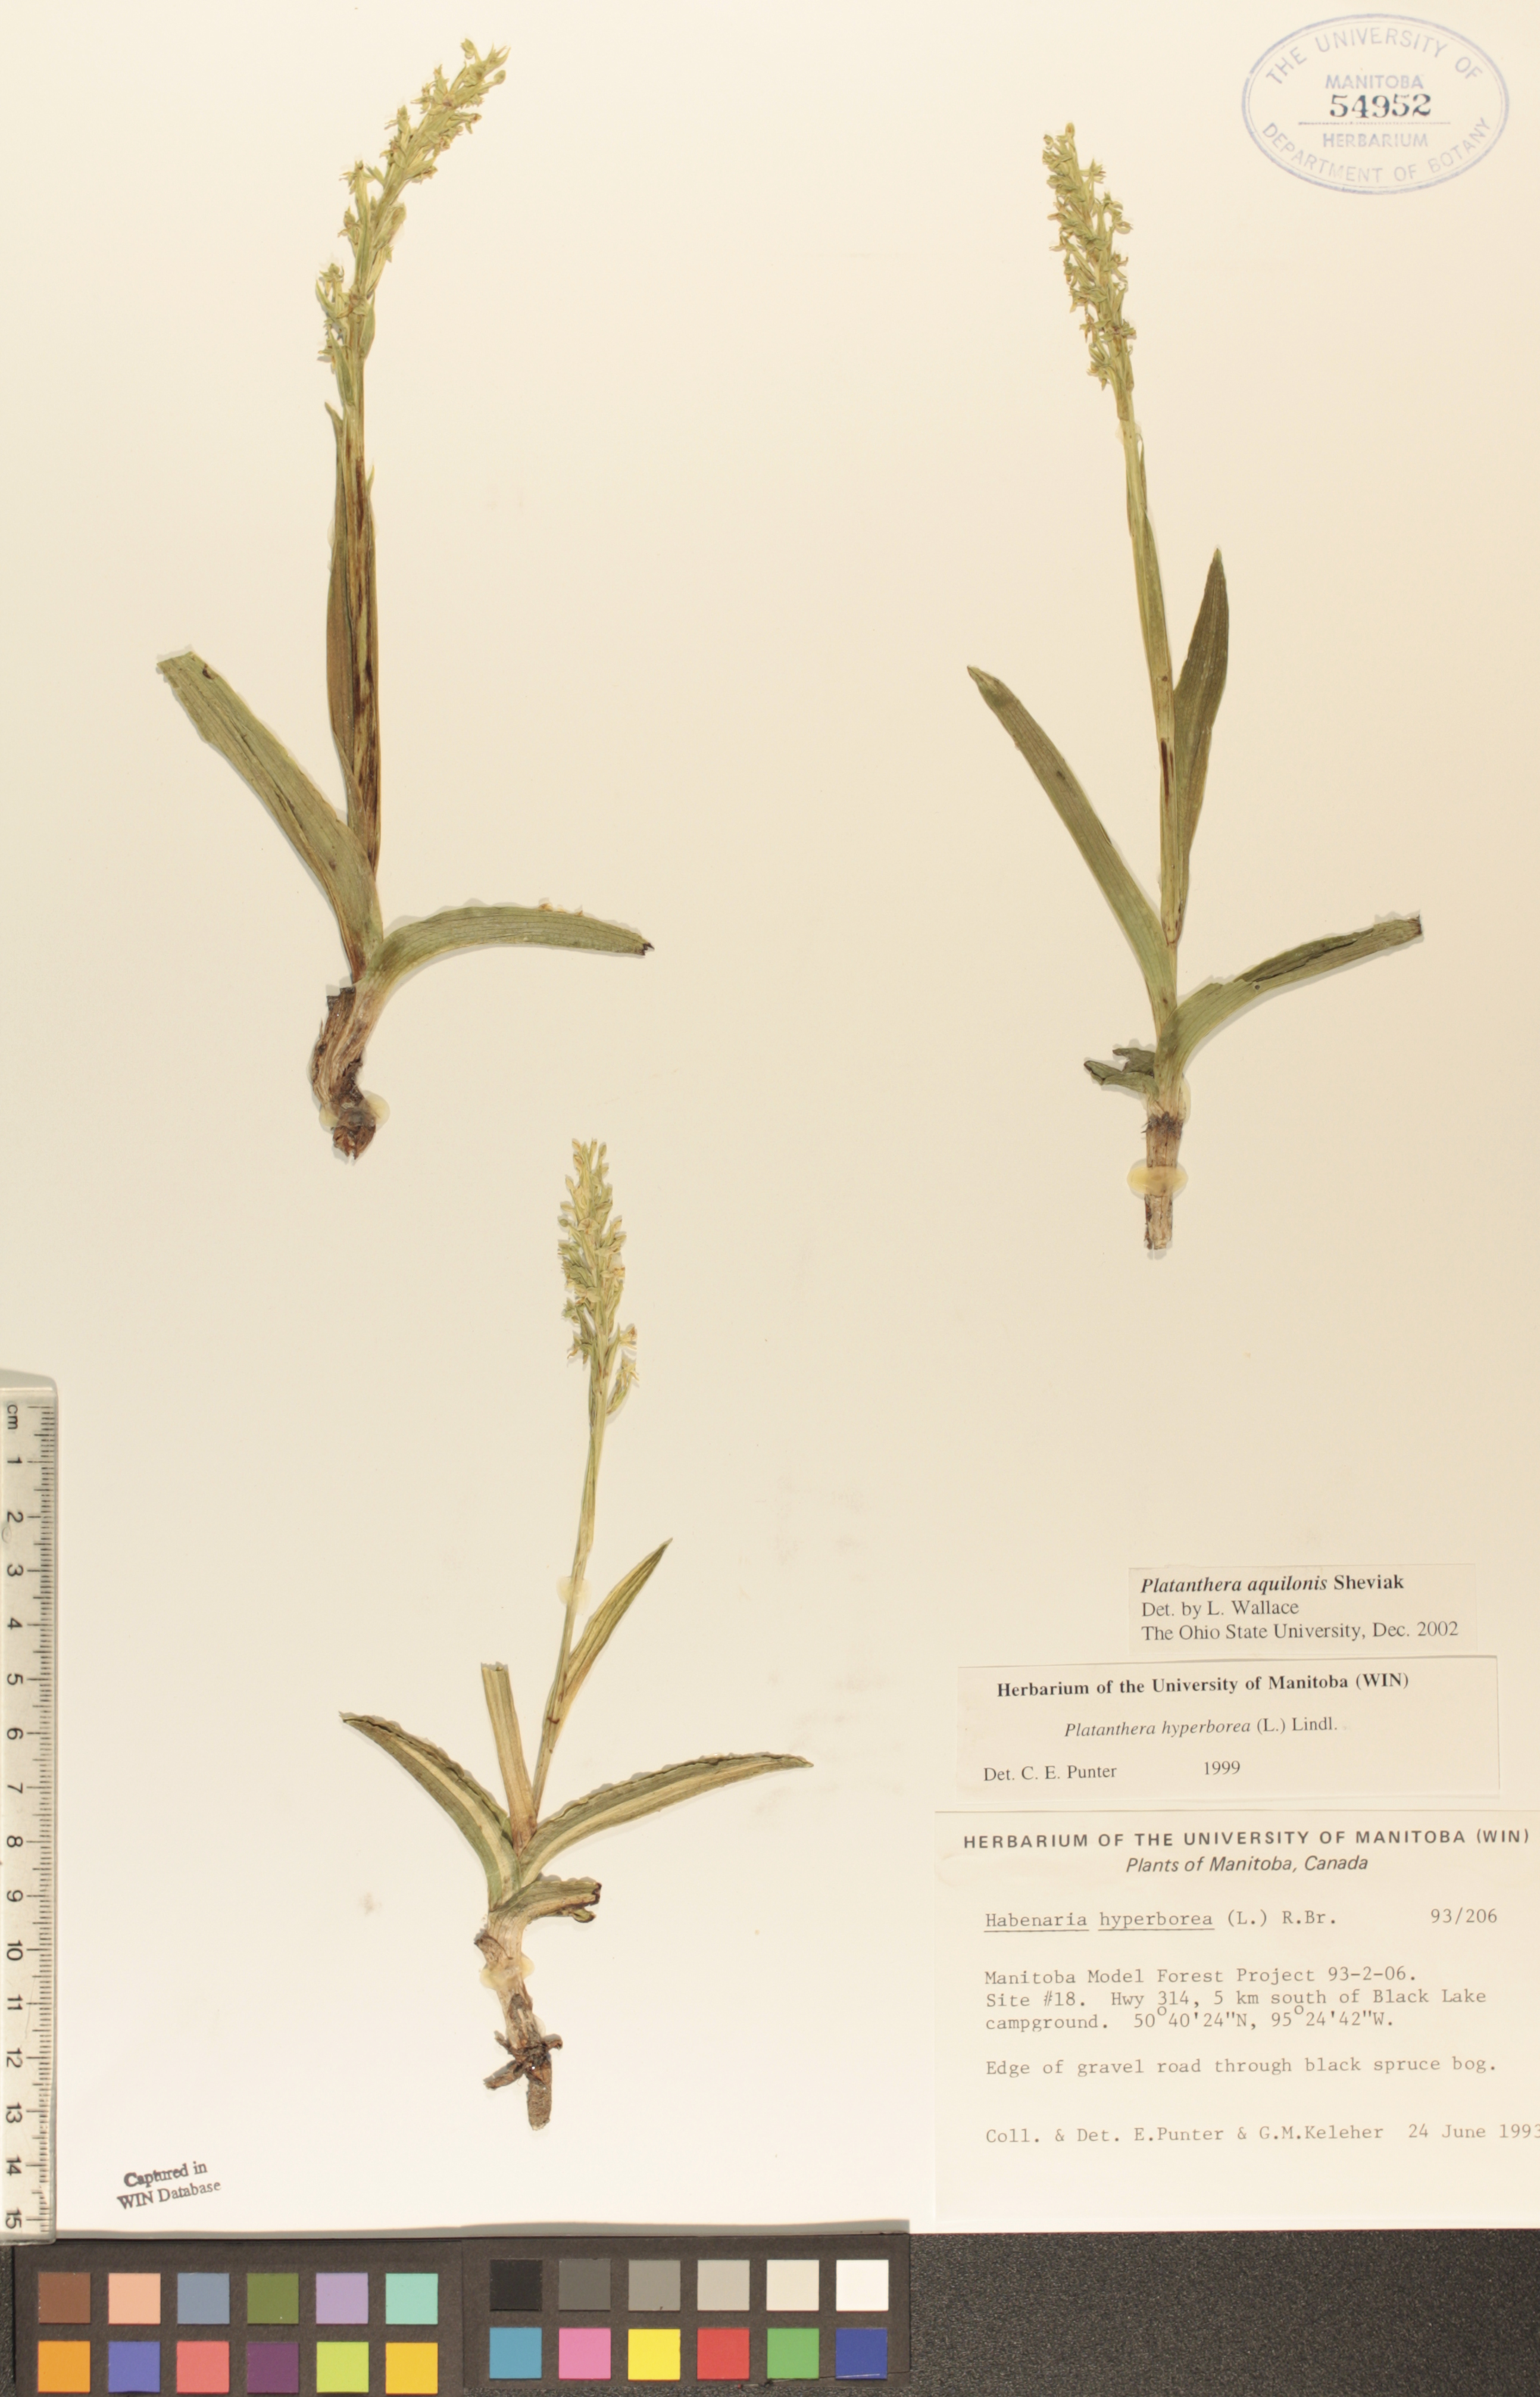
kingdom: Plantae
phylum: Tracheophyta
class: Liliopsida
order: Asparagales
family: Orchidaceae
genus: Platanthera
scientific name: Platanthera aquilonis
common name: Northern green orchid
